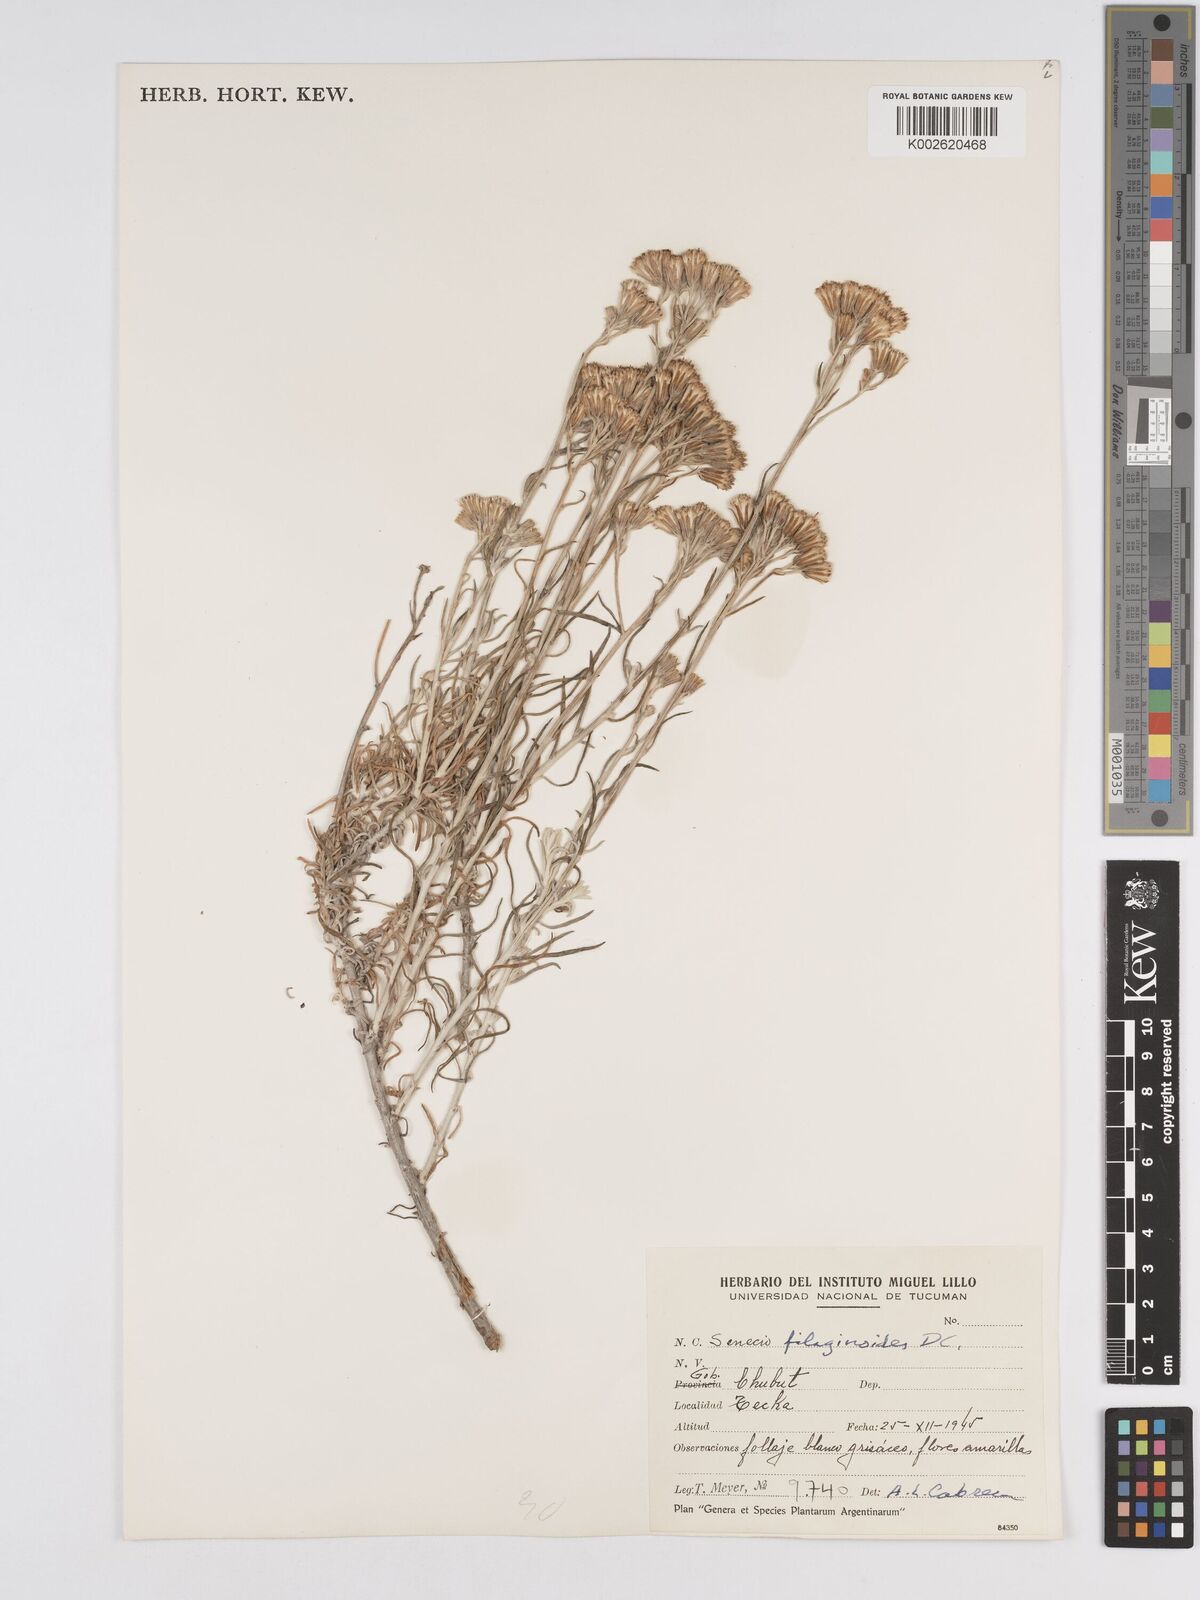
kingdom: Plantae
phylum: Tracheophyta
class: Magnoliopsida
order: Asterales
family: Asteraceae
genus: Senecio
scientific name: Senecio filaginoides
